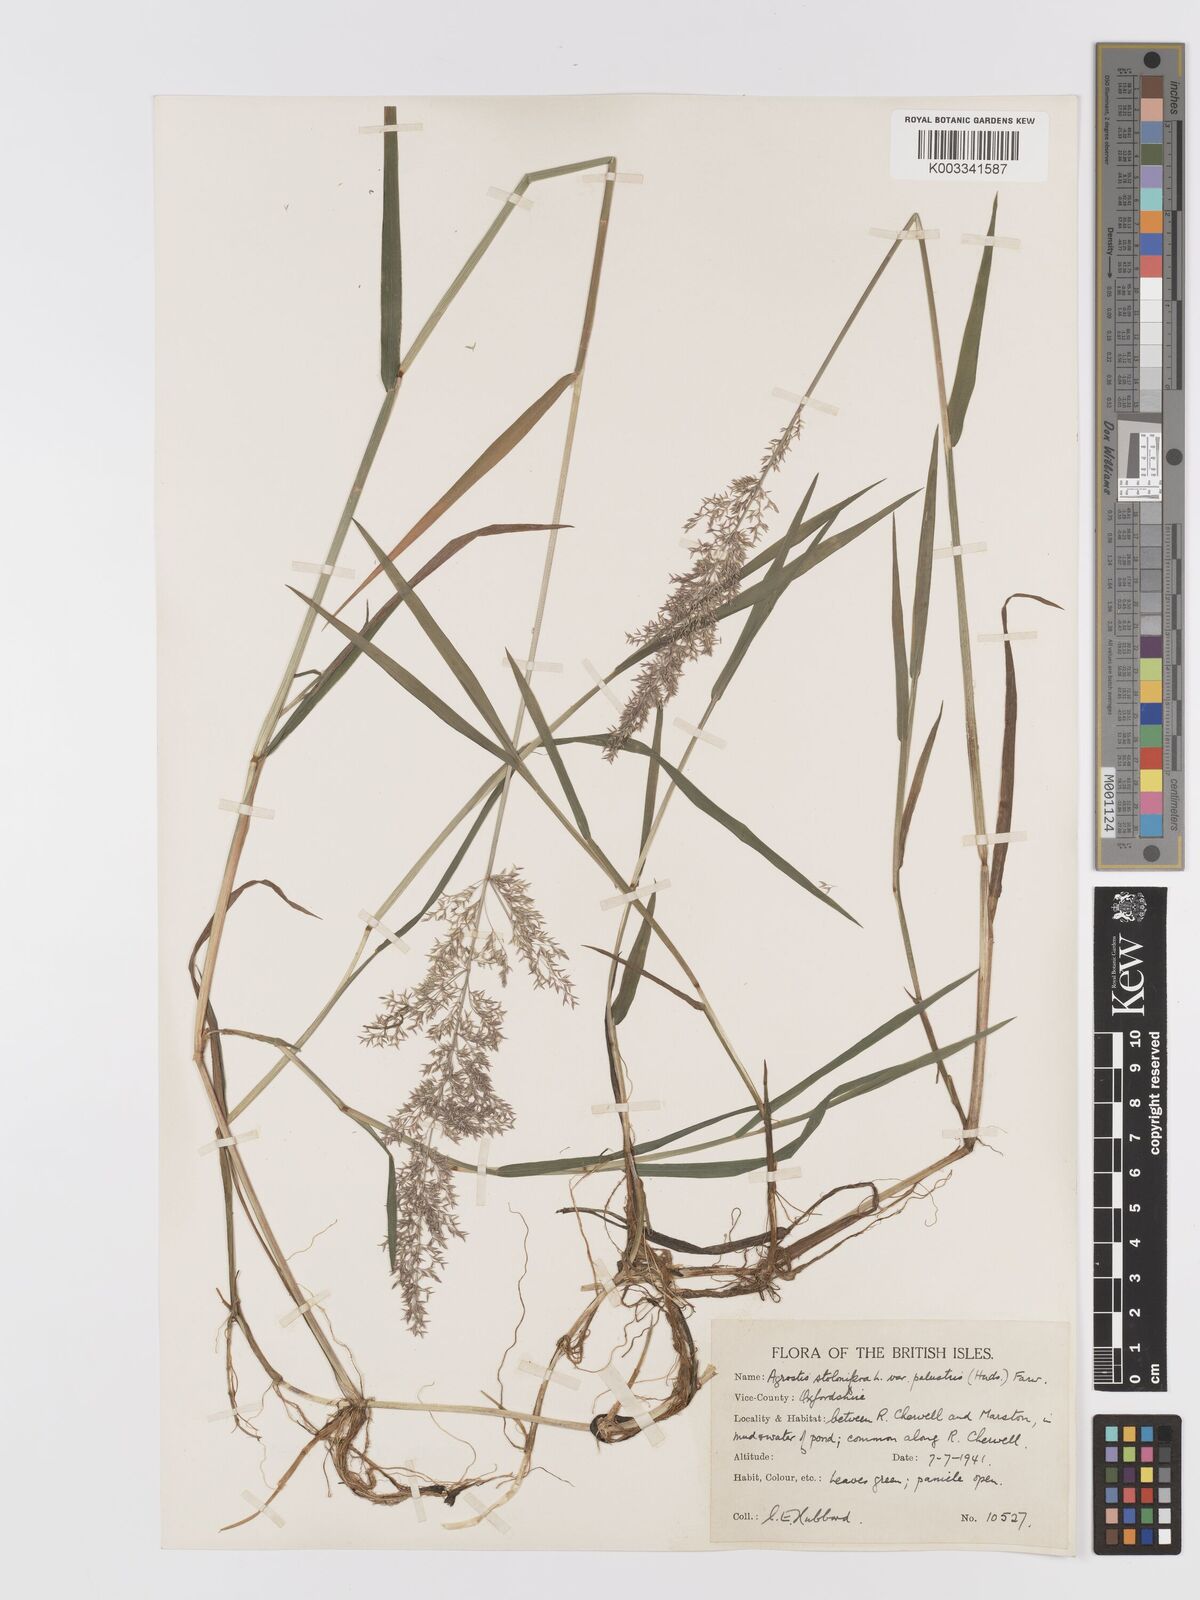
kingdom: Plantae
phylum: Tracheophyta
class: Liliopsida
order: Poales
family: Poaceae
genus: Agrostis
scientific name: Agrostis stolonifera
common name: Creeping bentgrass
